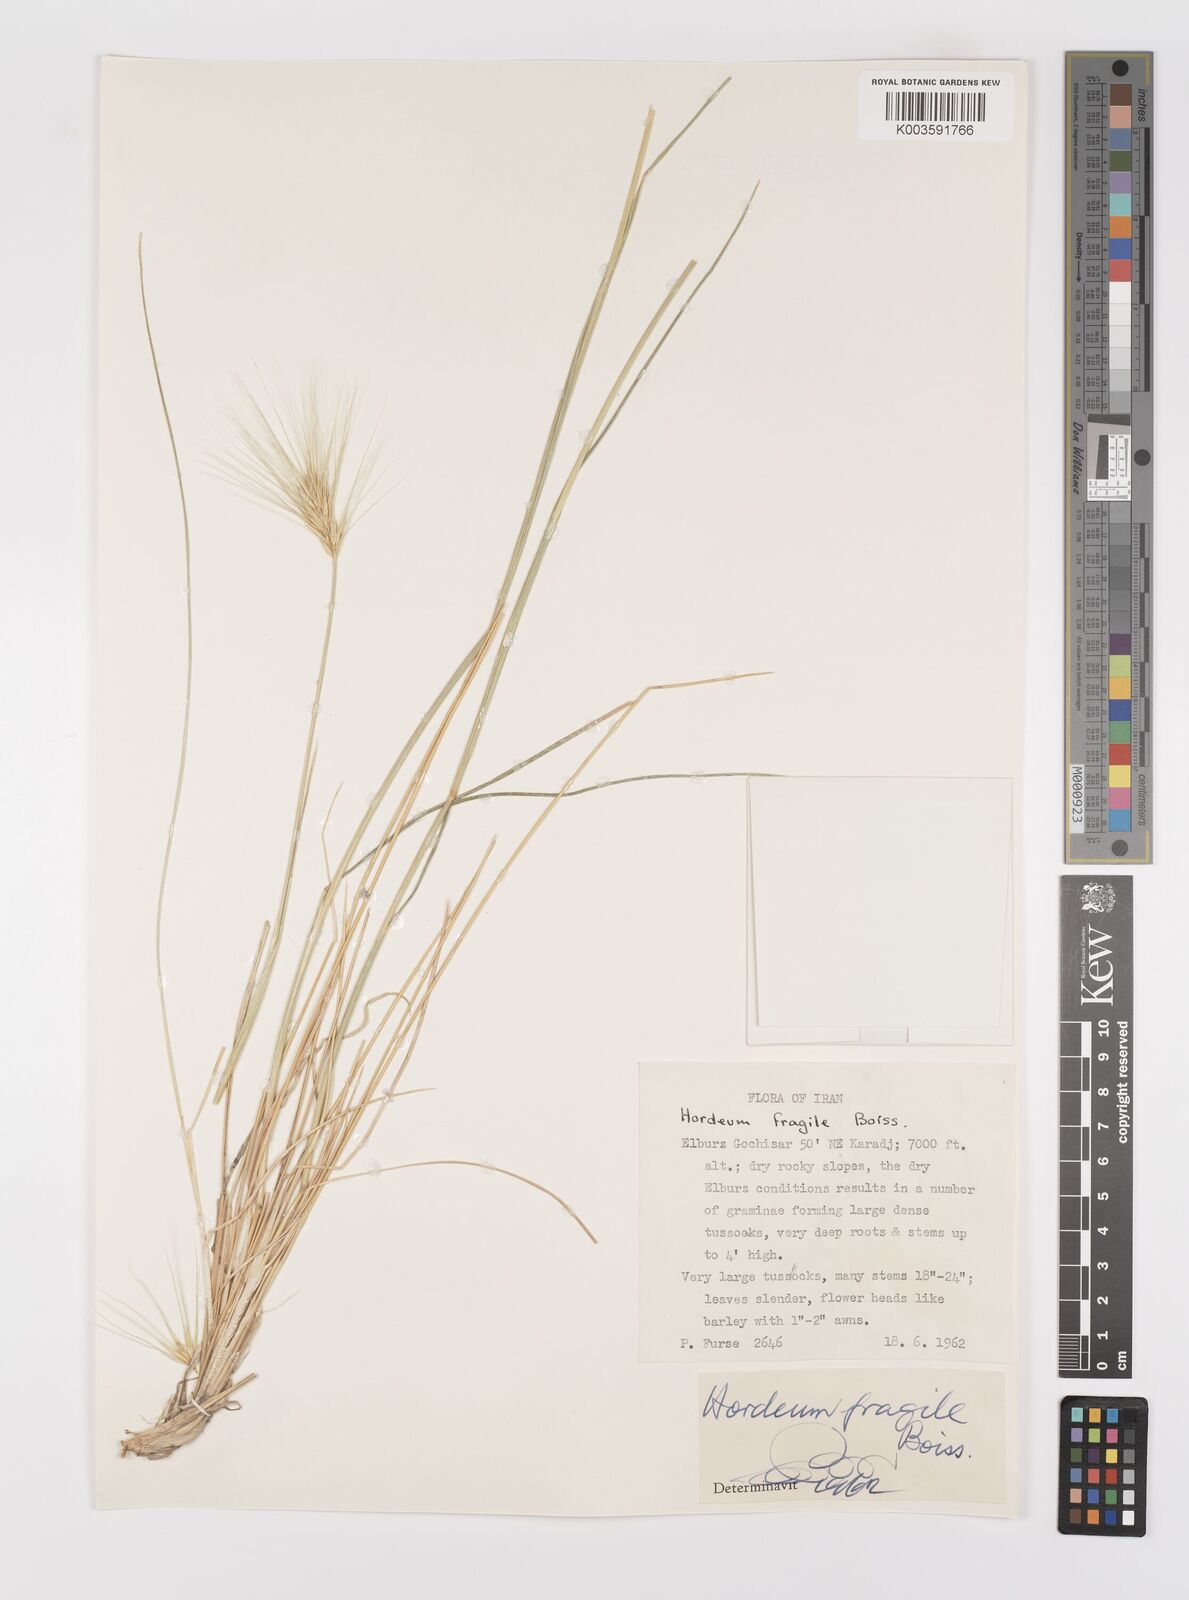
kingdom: Plantae
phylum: Tracheophyta
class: Liliopsida
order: Poales
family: Poaceae
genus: Psathyrostachys
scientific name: Psathyrostachys fragilis
